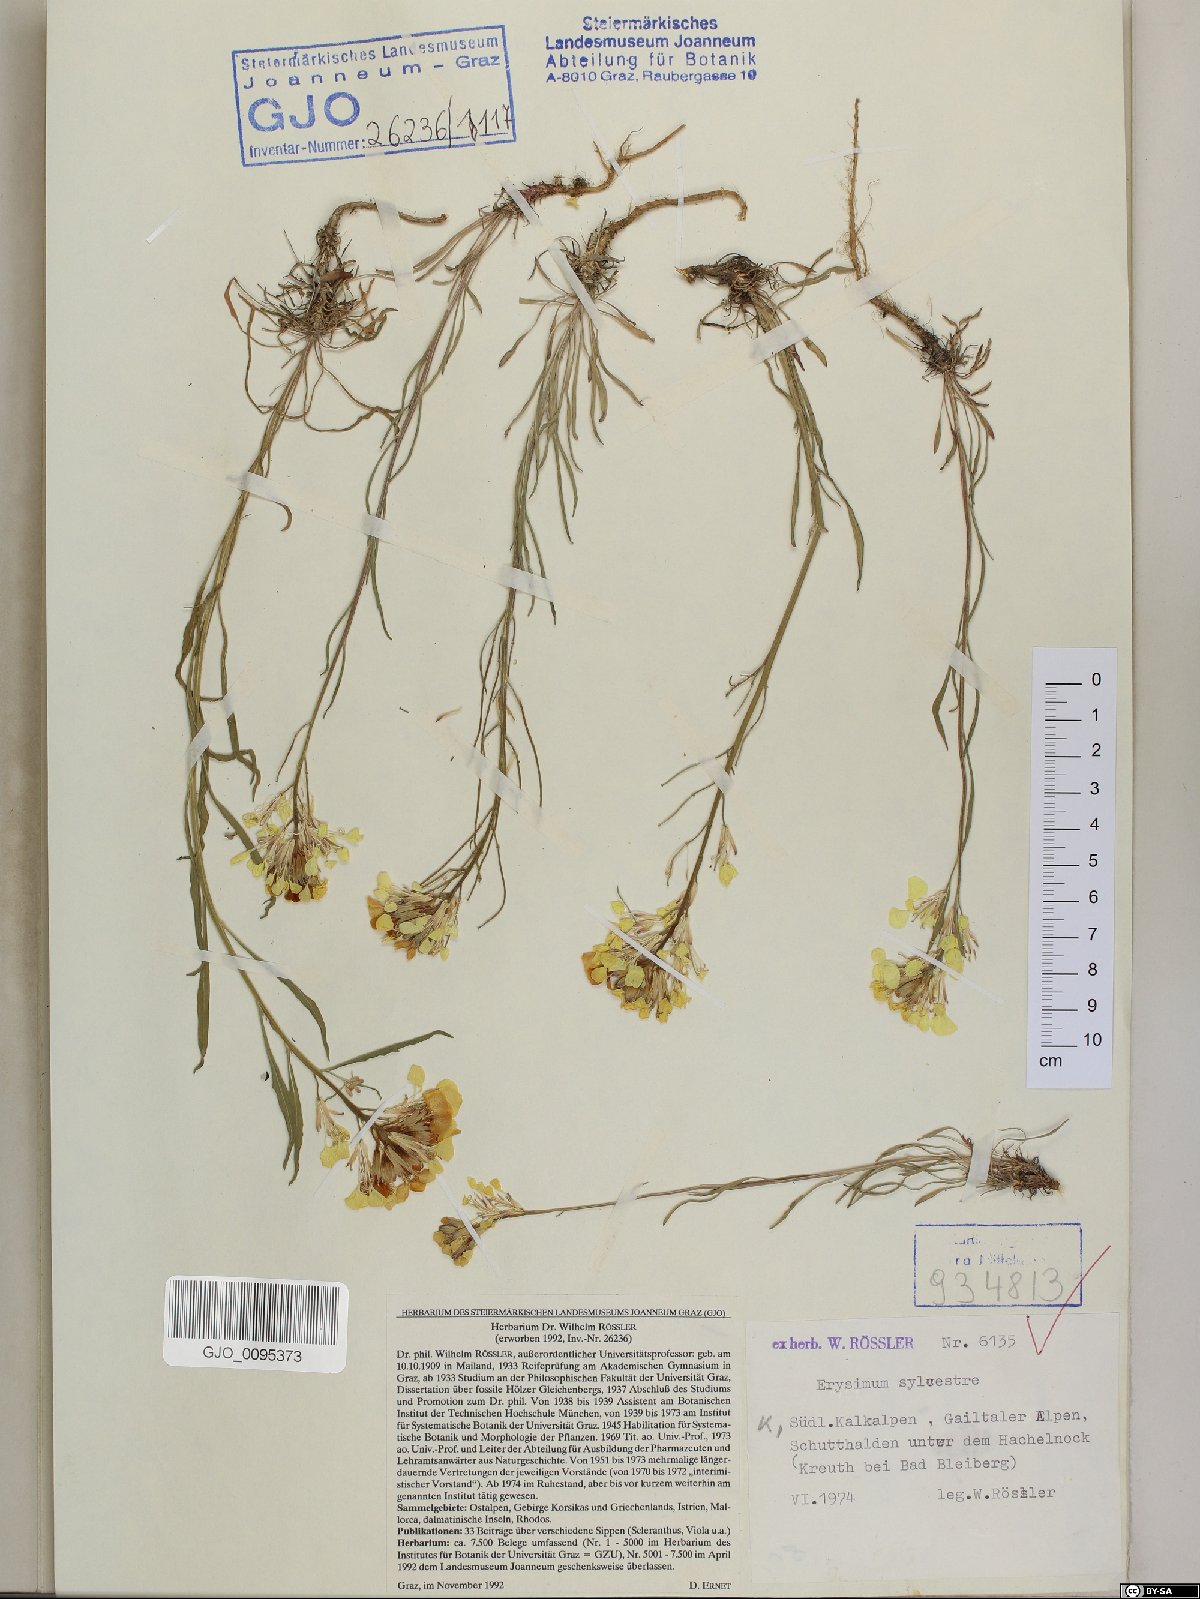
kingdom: Plantae
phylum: Tracheophyta
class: Magnoliopsida
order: Brassicales
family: Brassicaceae
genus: Erysimum
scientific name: Erysimum sylvestre
